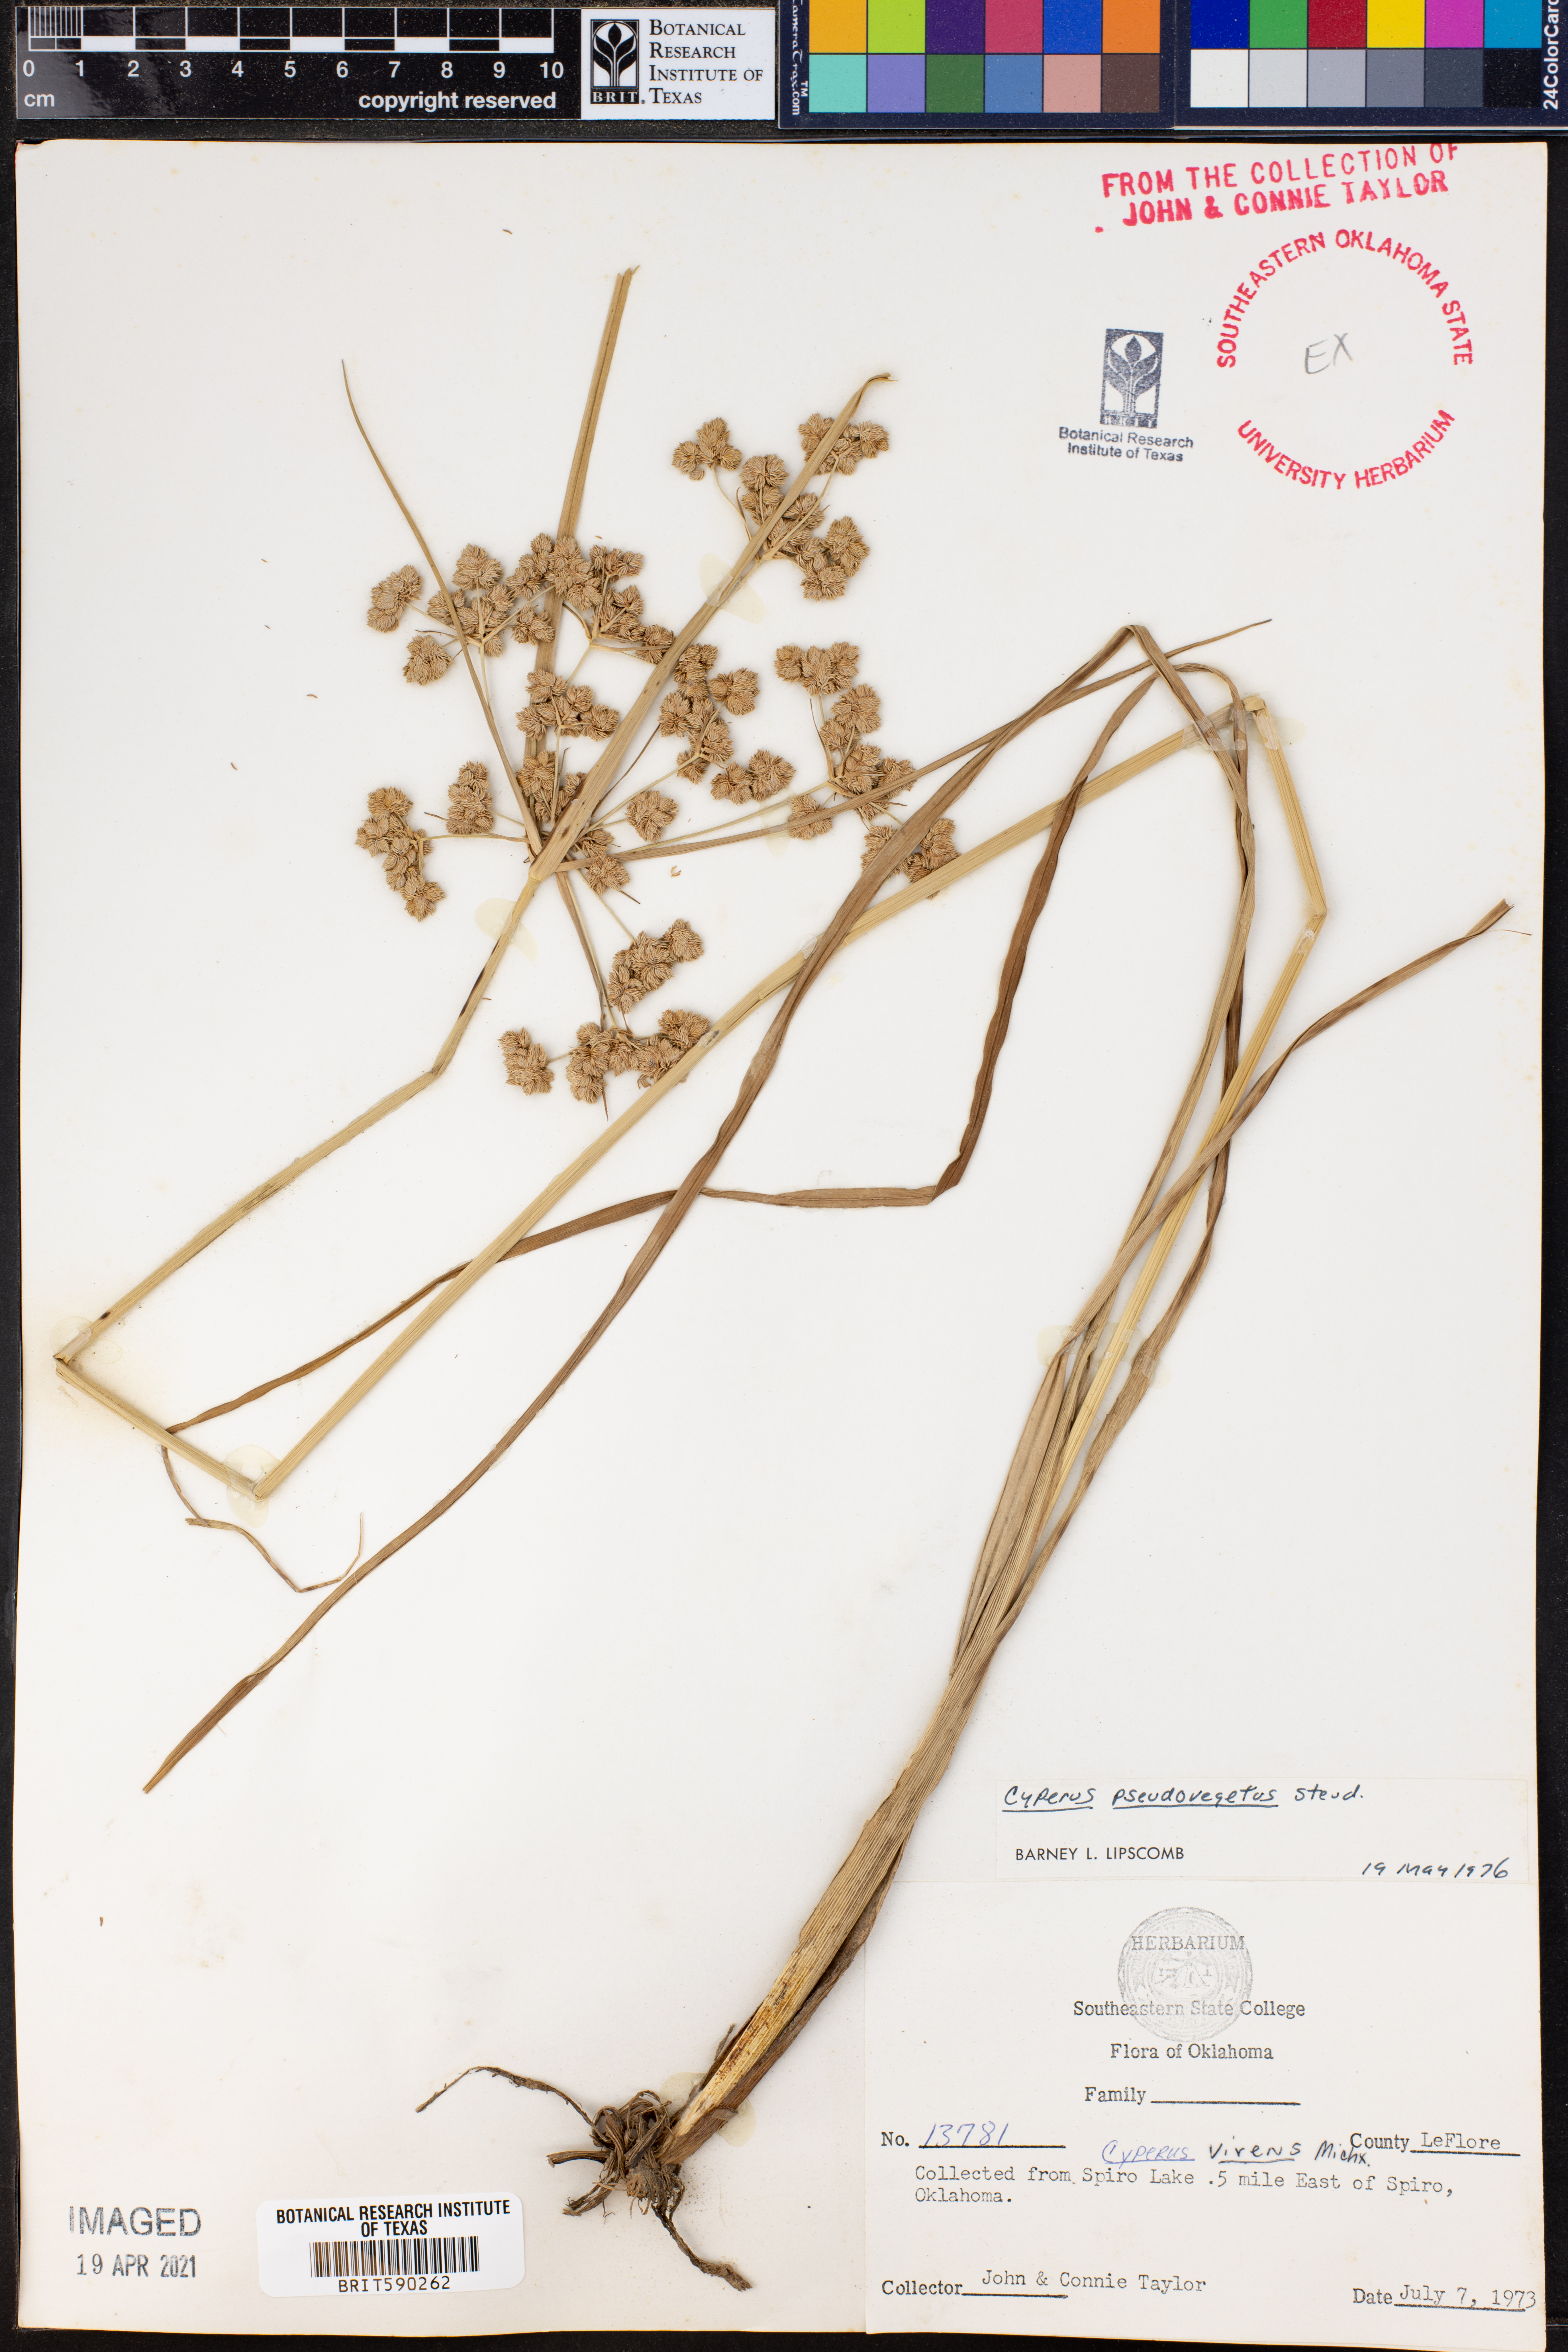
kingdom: Plantae
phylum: Tracheophyta
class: Liliopsida
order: Poales
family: Cyperaceae
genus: Cyperus
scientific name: Cyperus pseudovegetus
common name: Marsh flat sedge
